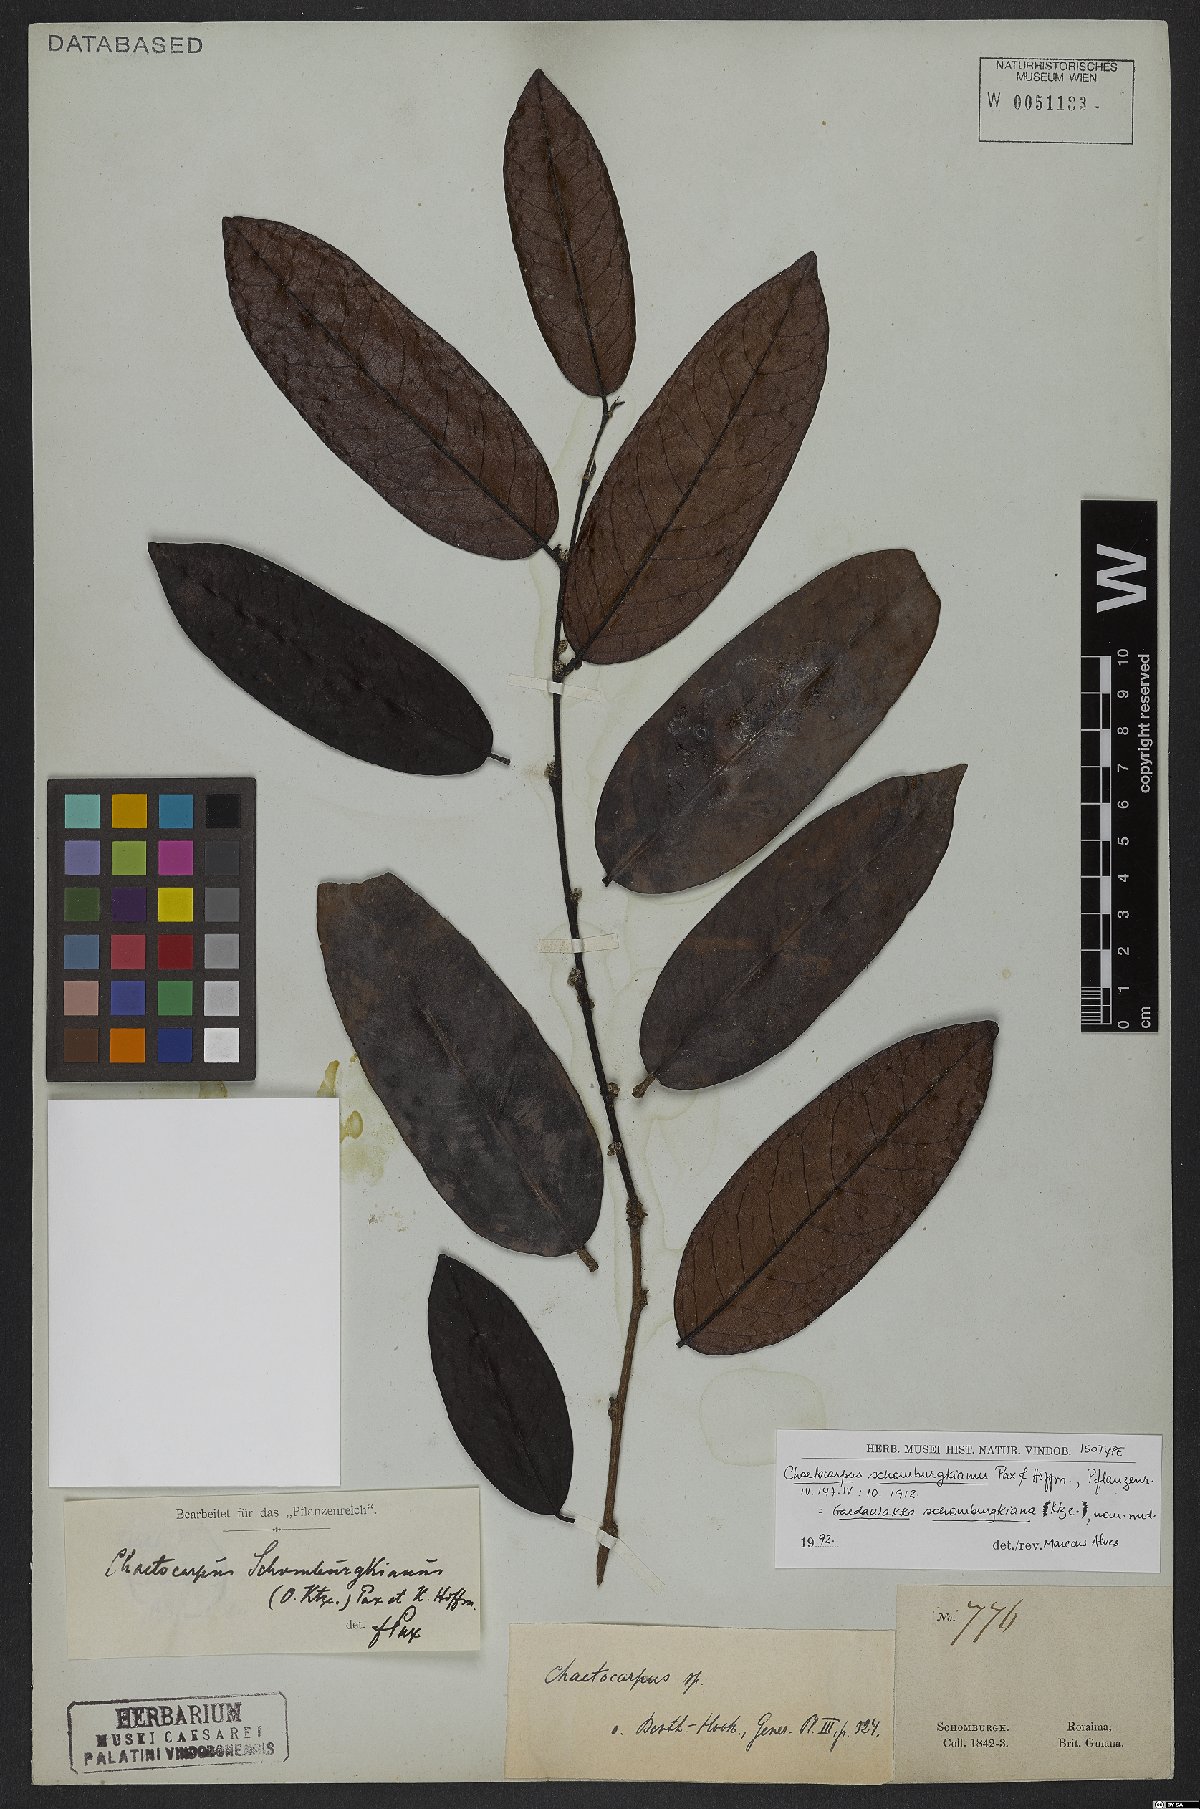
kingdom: Plantae
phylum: Tracheophyta
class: Magnoliopsida
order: Malpighiales
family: Peraceae
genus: Chaetocarpus
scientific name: Chaetocarpus schomburgkianus
